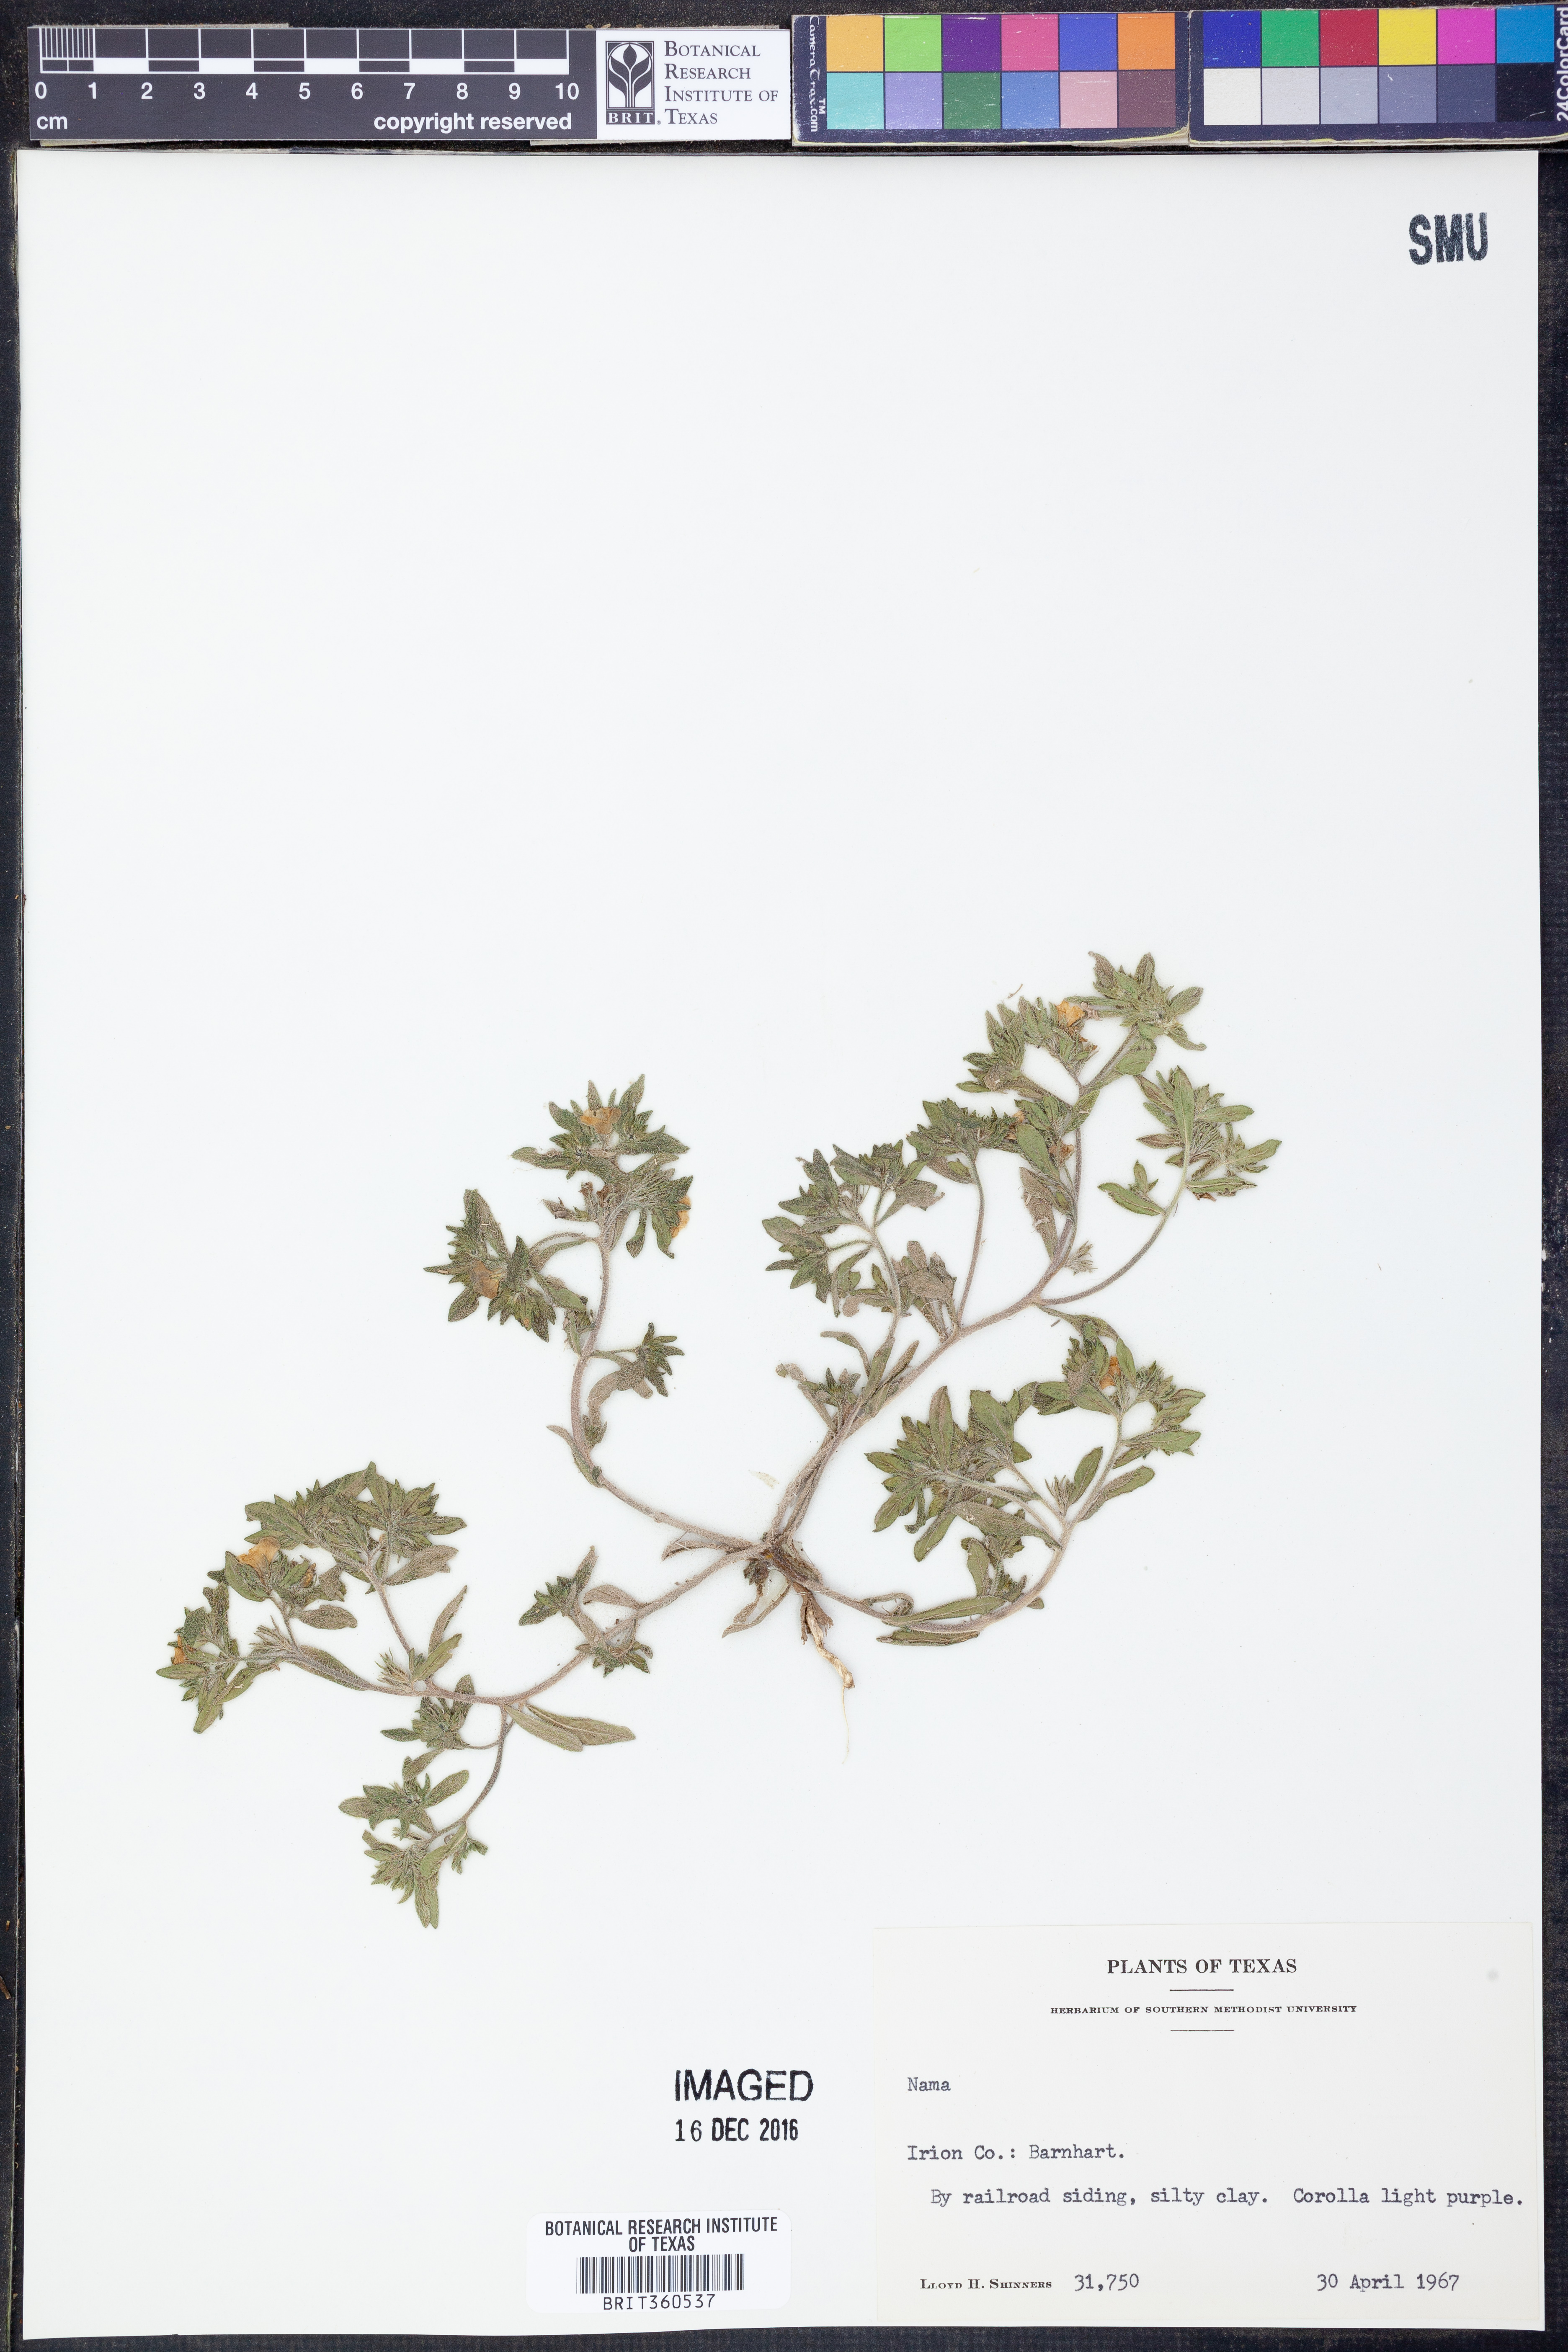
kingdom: Plantae
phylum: Tracheophyta
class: Magnoliopsida
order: Boraginales
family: Namaceae
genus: Nama
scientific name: Nama
